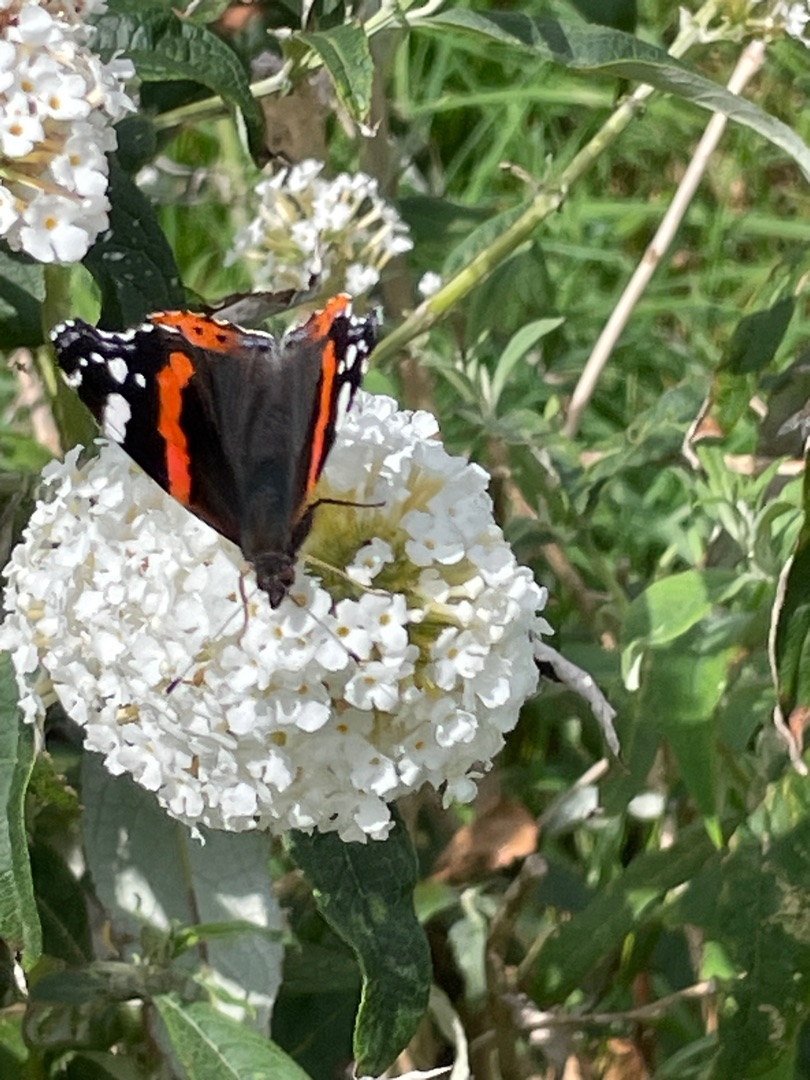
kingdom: Animalia
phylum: Arthropoda
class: Insecta
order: Lepidoptera
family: Nymphalidae
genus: Vanessa
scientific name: Vanessa atalanta
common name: Admiral
